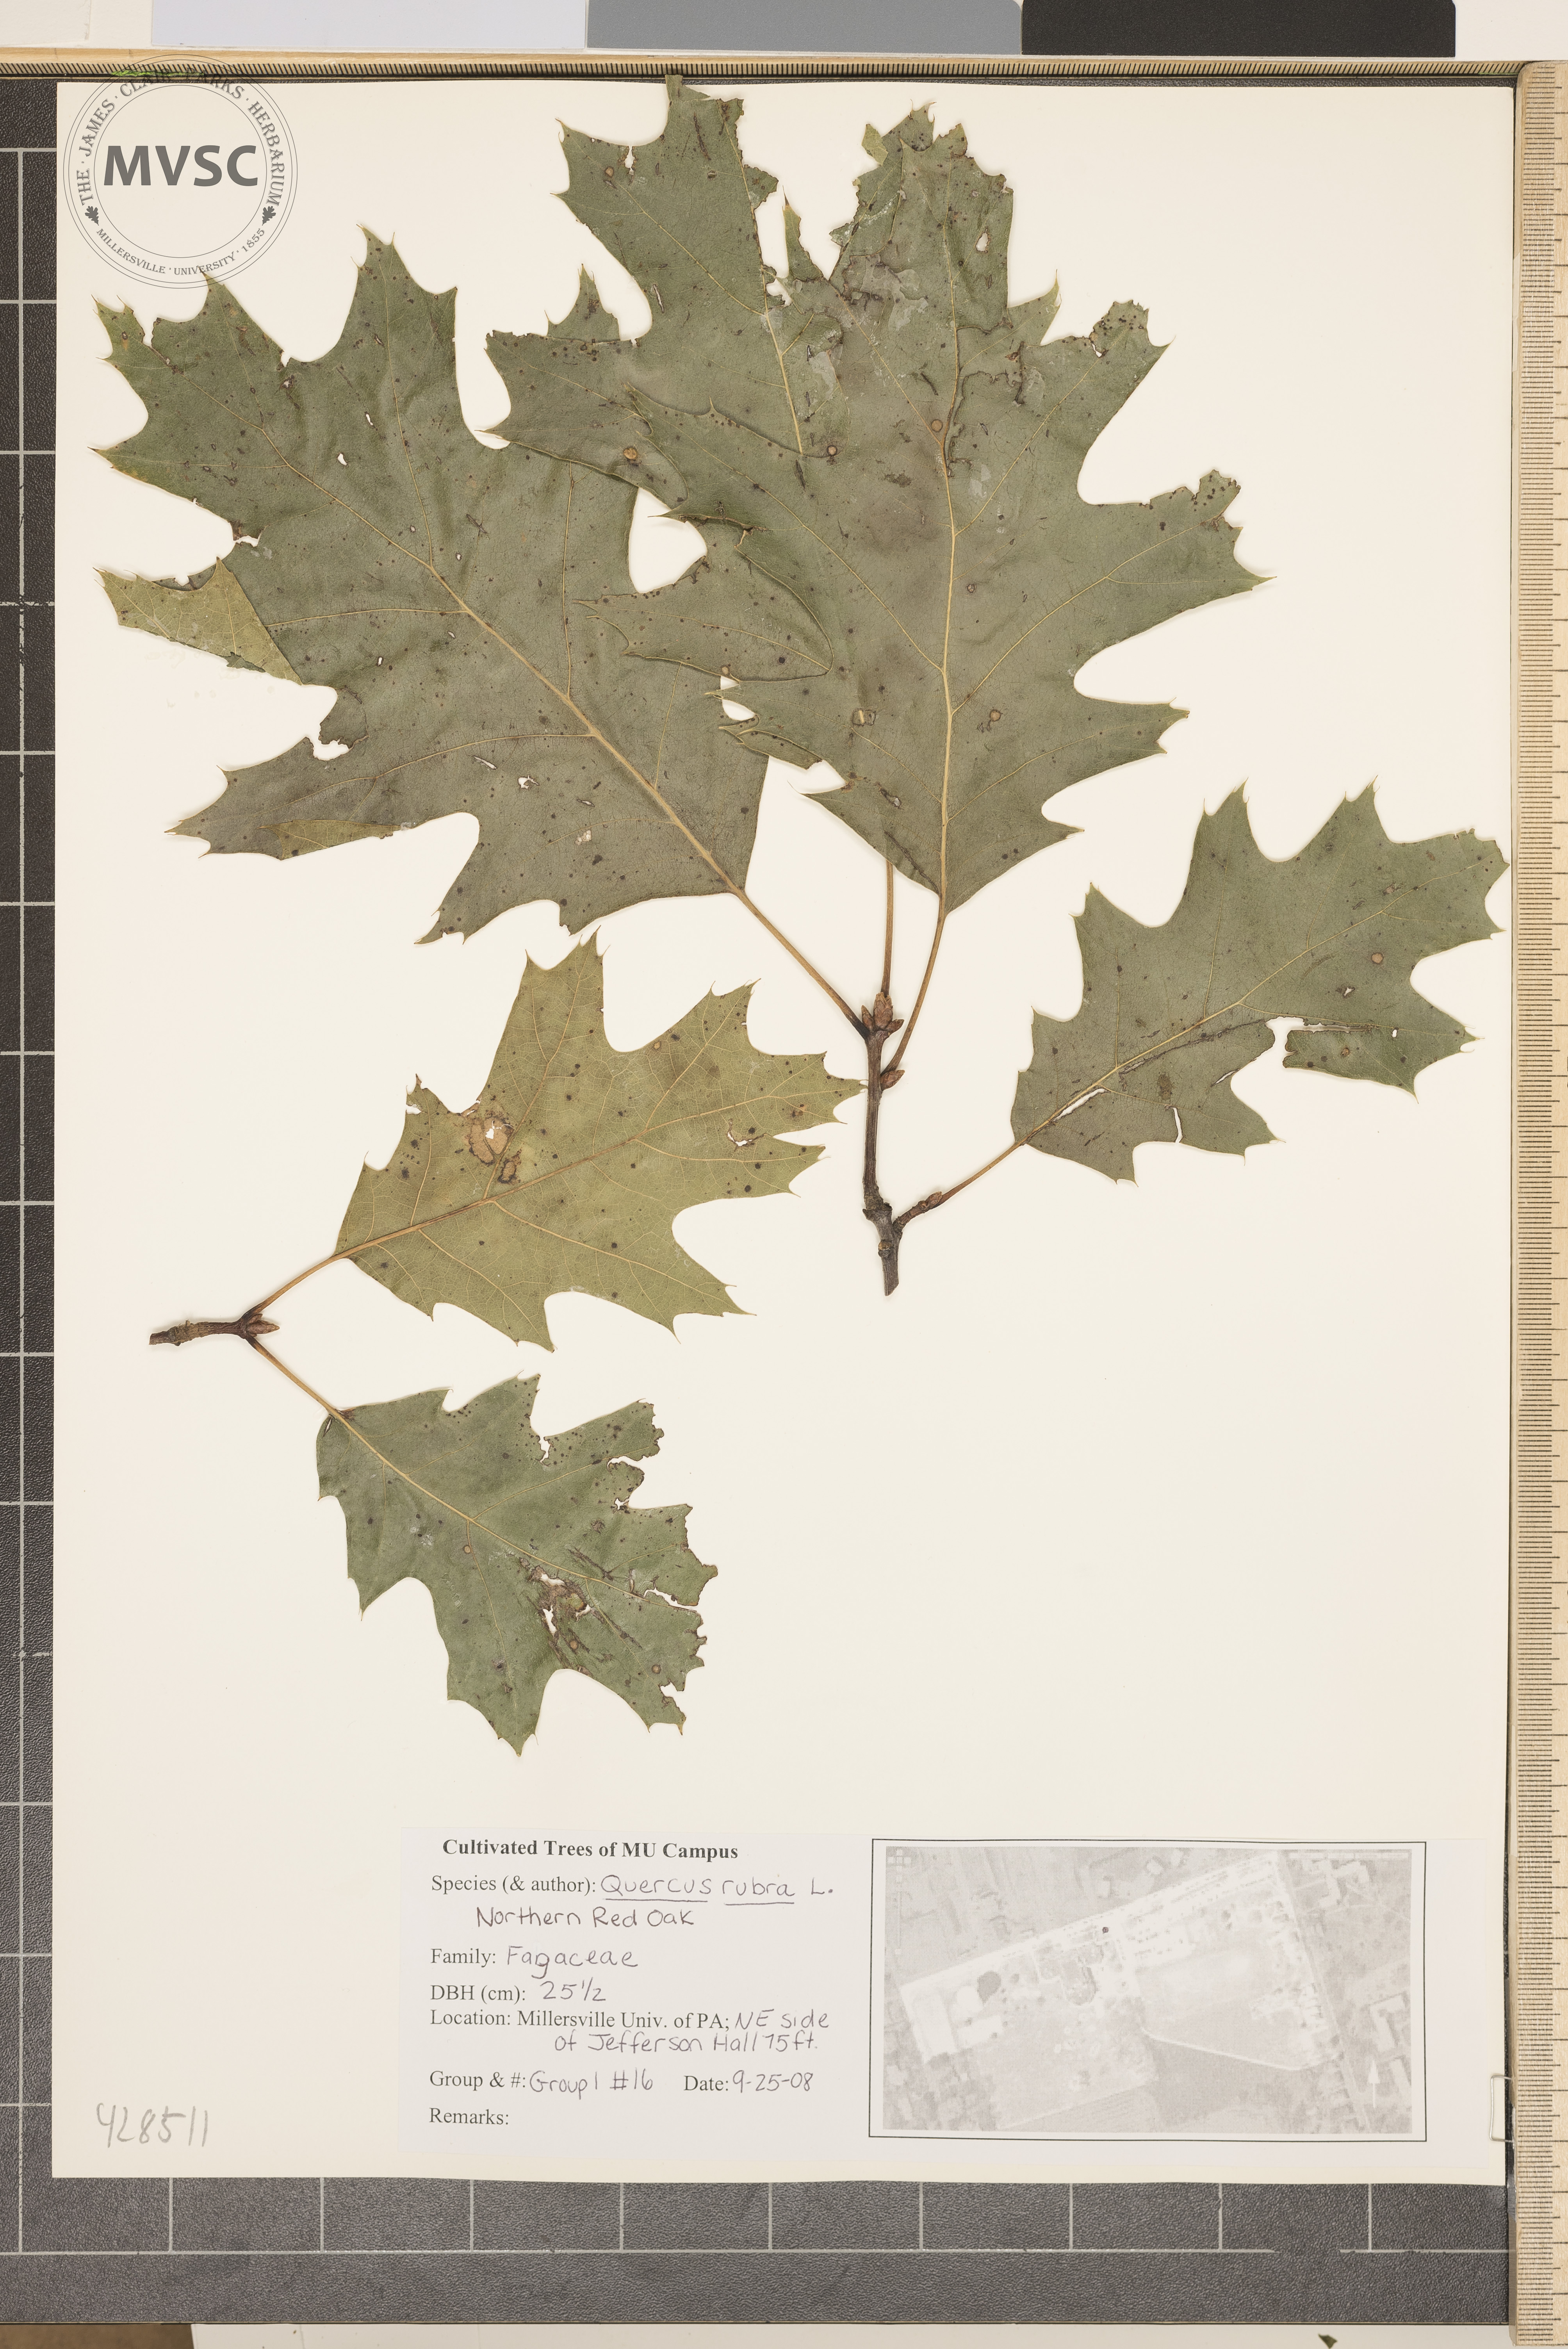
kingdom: Plantae
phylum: Tracheophyta
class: Magnoliopsida
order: Fagales
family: Fagaceae
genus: Quercus
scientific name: Quercus rubra
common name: Northern Red Oak
